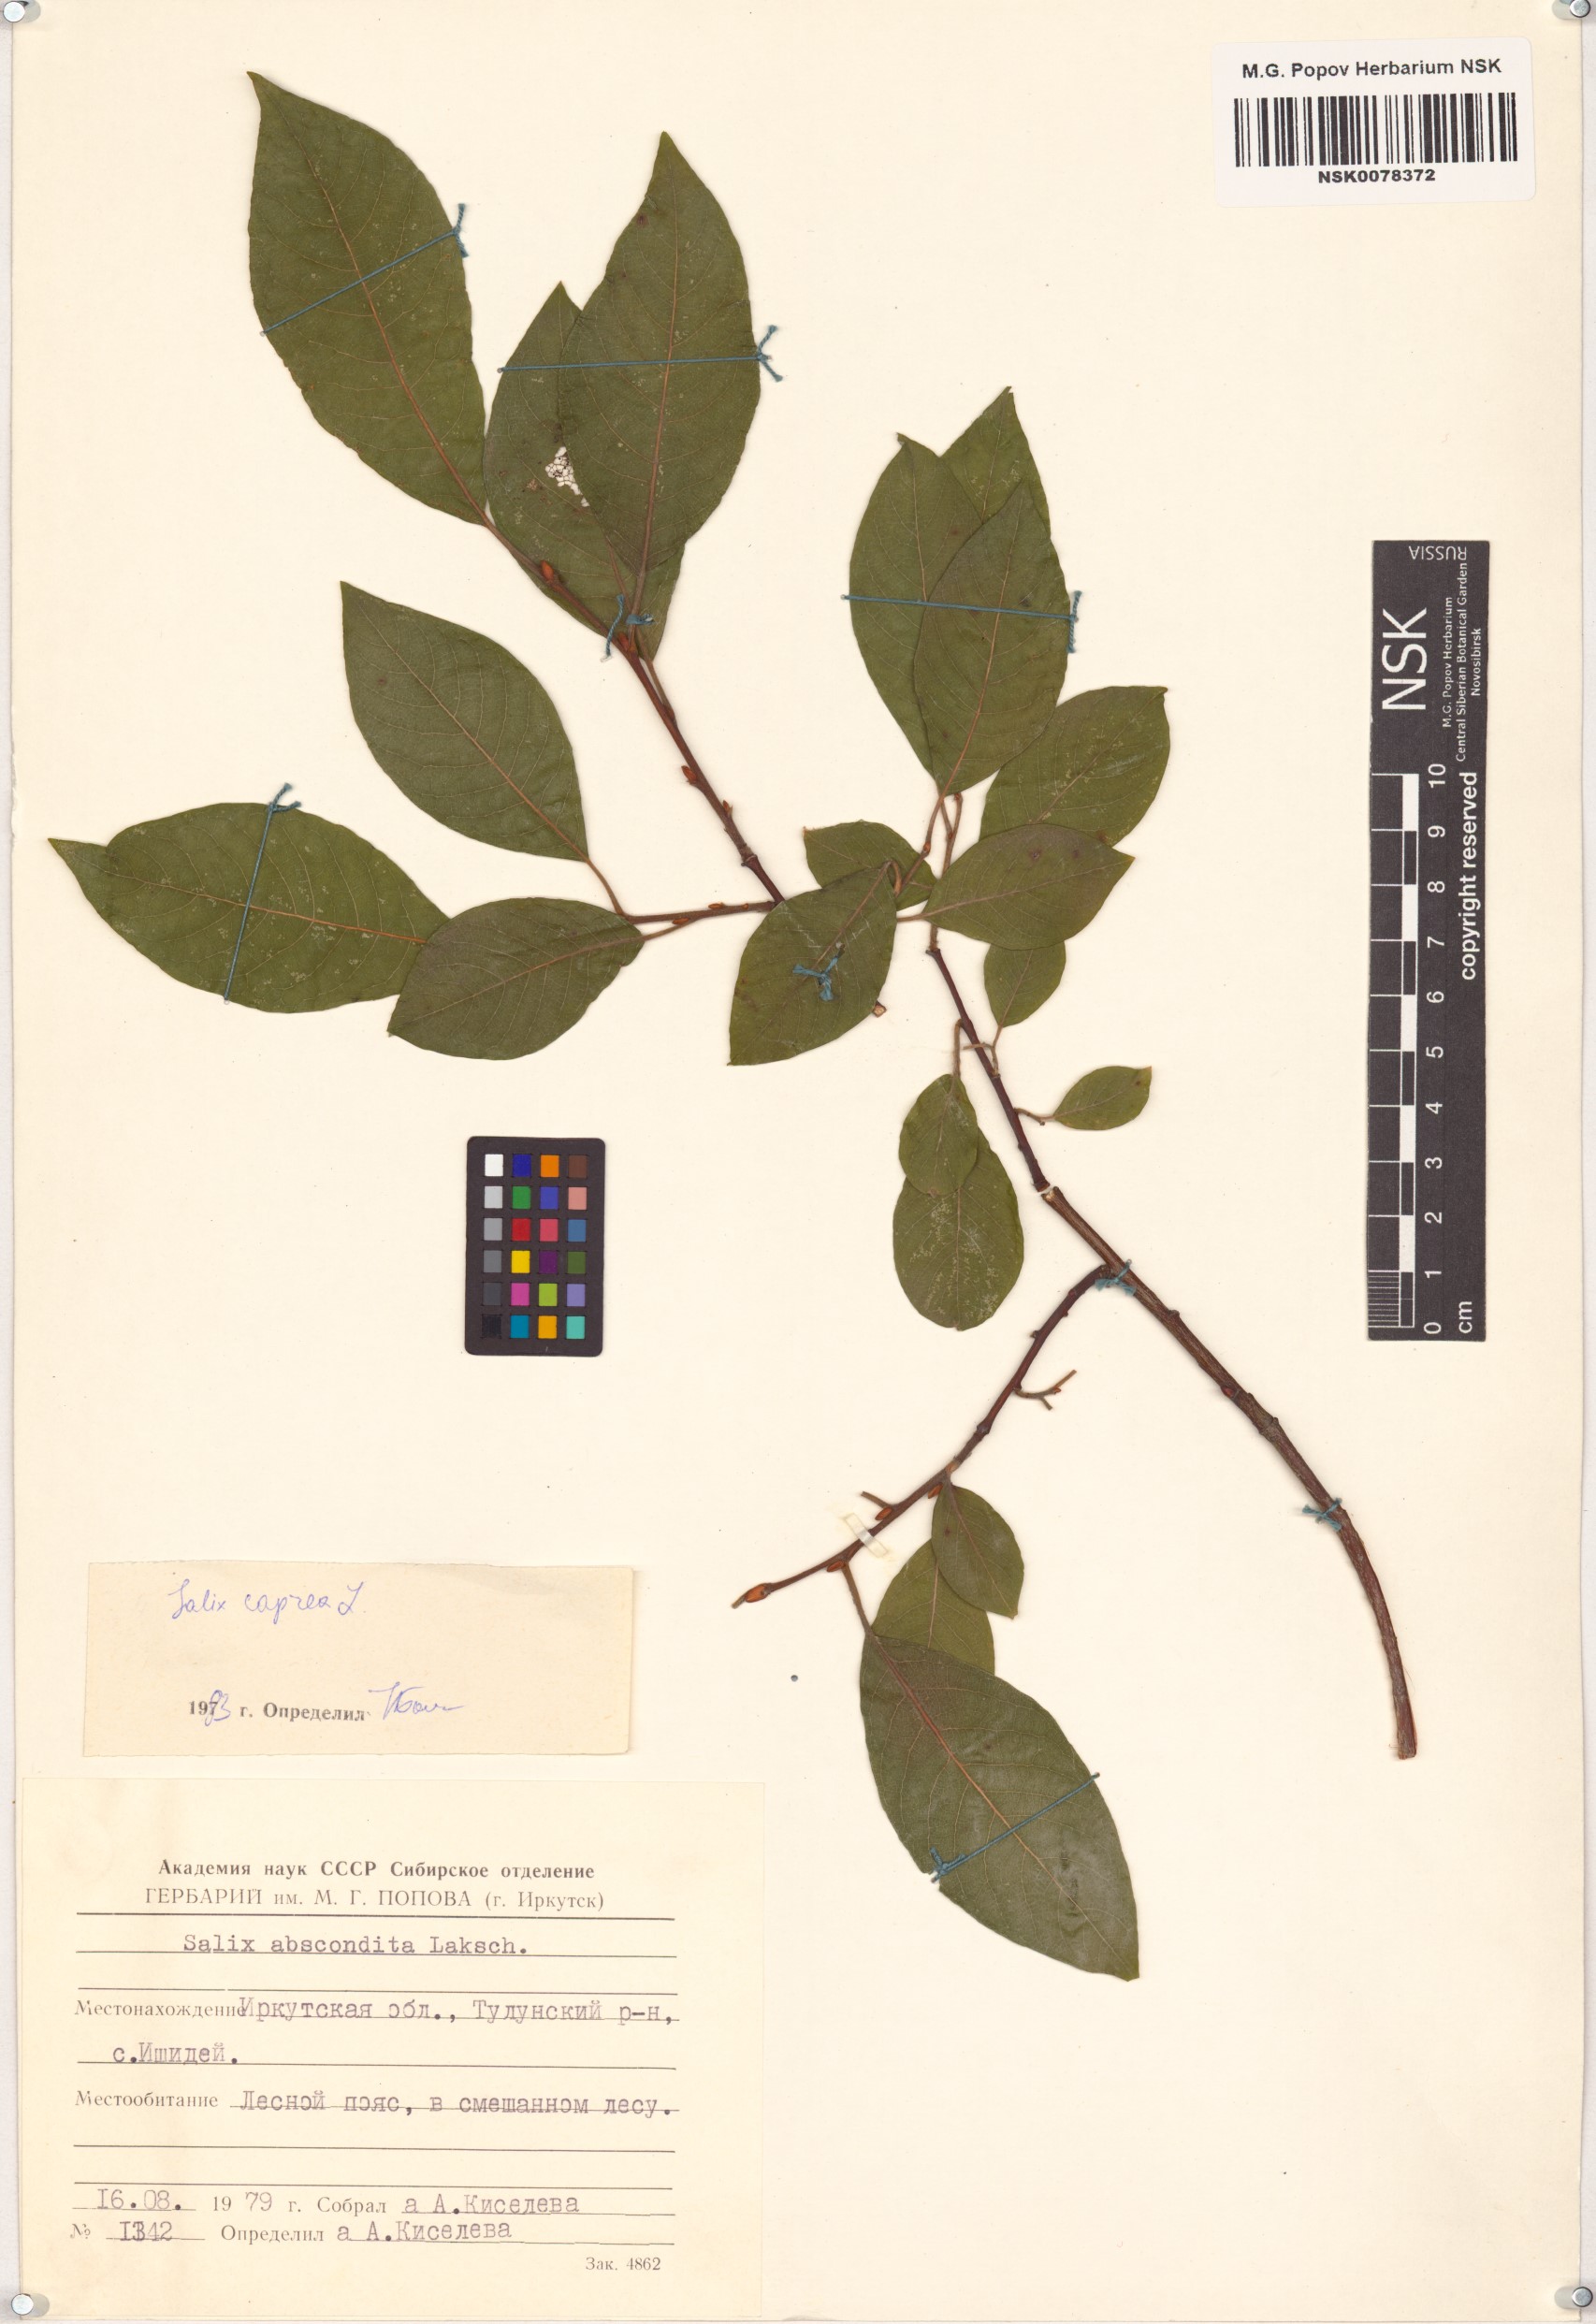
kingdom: Plantae
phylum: Tracheophyta
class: Magnoliopsida
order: Malpighiales
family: Salicaceae
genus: Salix
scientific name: Salix caprea
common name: Goat willow
